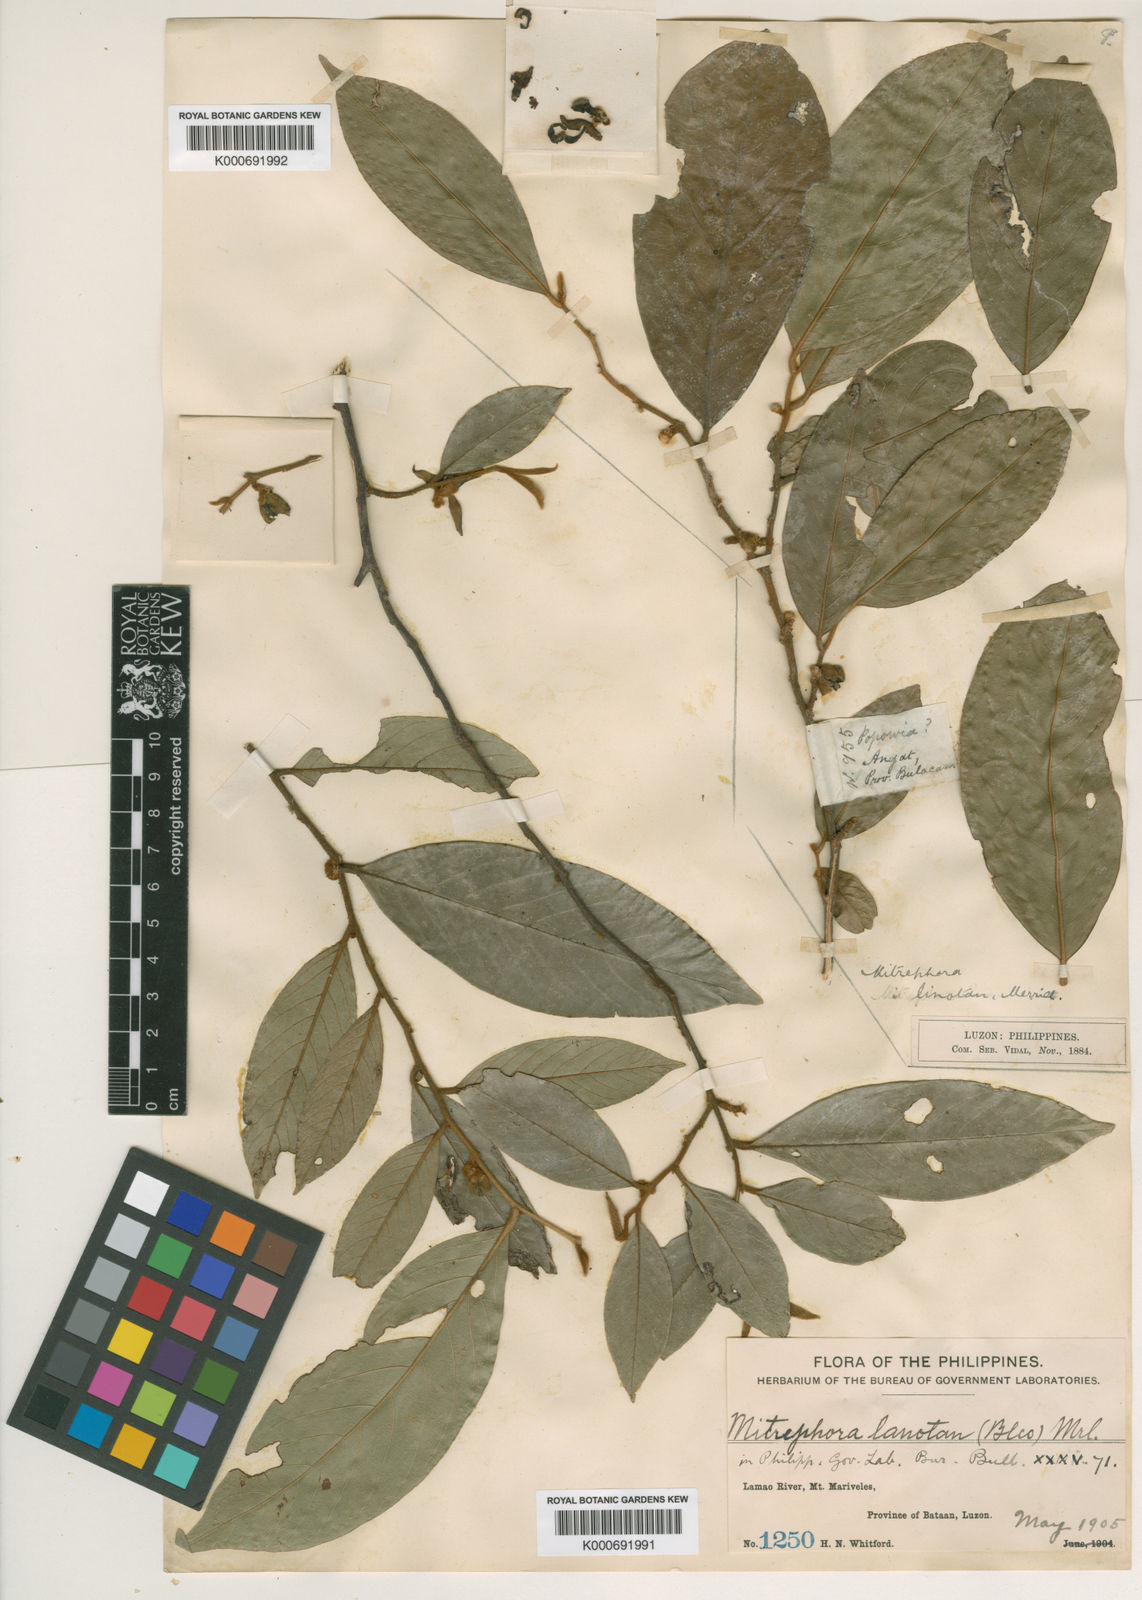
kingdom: Plantae
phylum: Tracheophyta
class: Magnoliopsida
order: Magnoliales
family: Annonaceae
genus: Mitrephora
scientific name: Mitrephora lanotan
